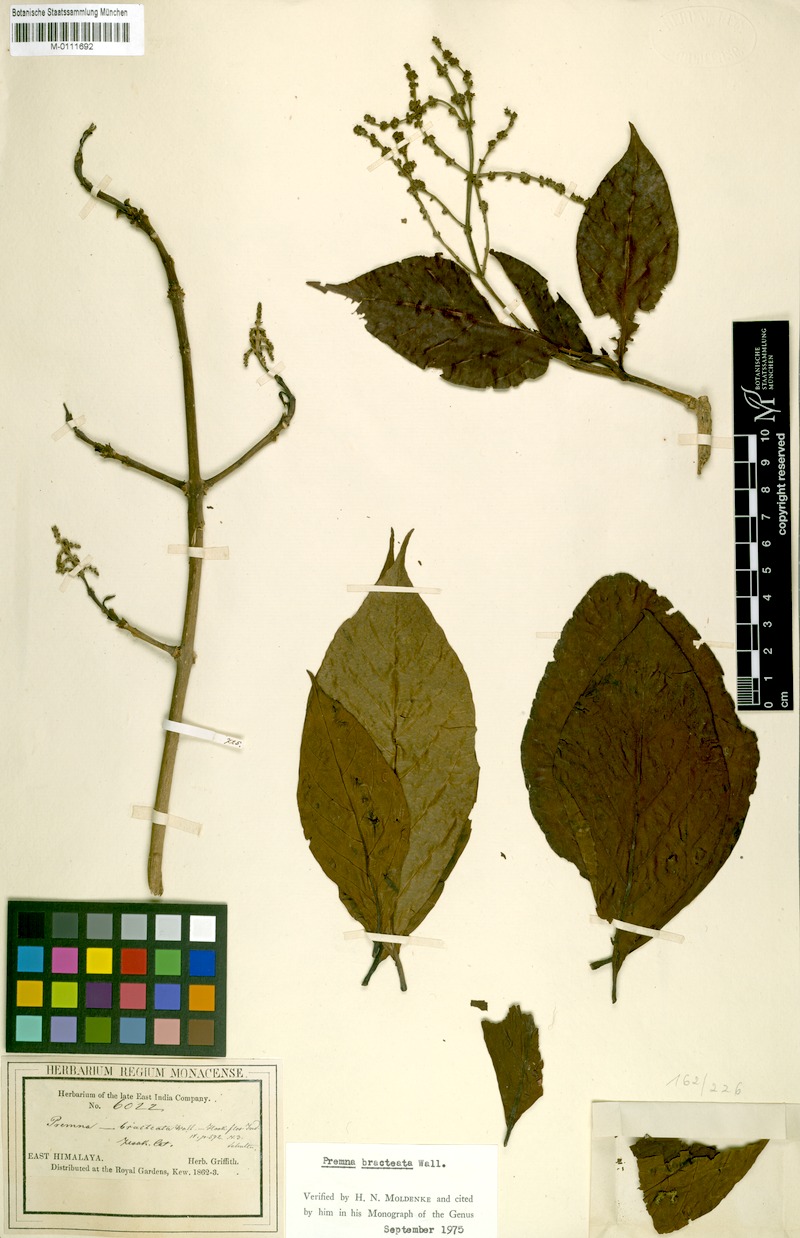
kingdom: Plantae
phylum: Tracheophyta
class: Magnoliopsida
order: Lamiales
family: Lamiaceae
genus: Premna
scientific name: Premna bracteata
